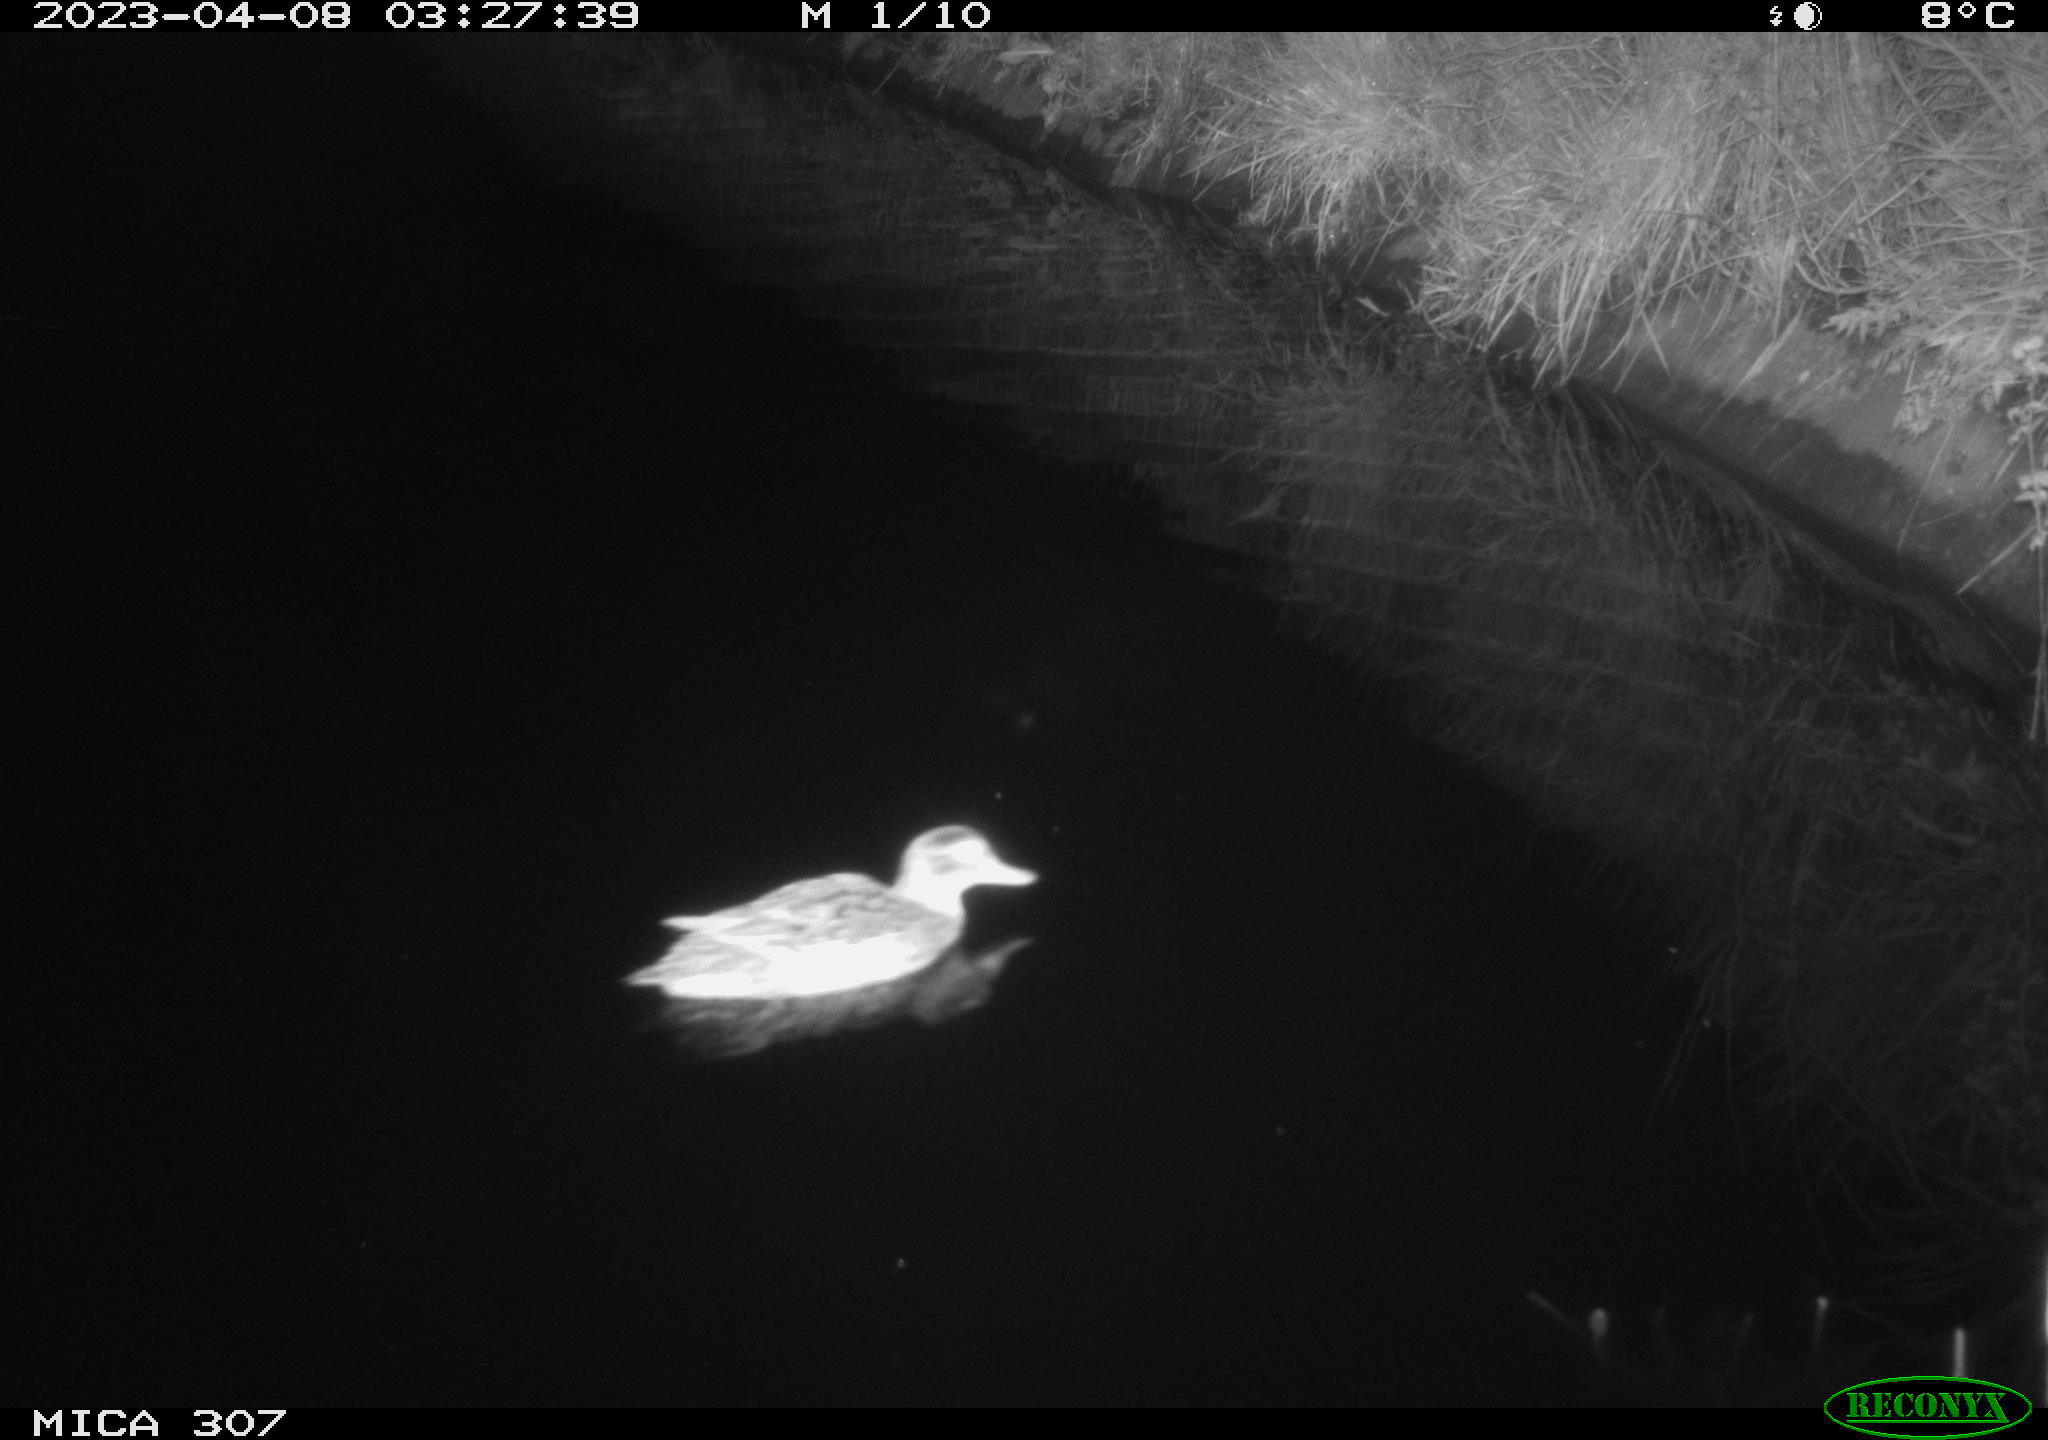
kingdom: Animalia
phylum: Chordata
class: Aves
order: Anseriformes
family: Anatidae
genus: Anas
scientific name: Anas
